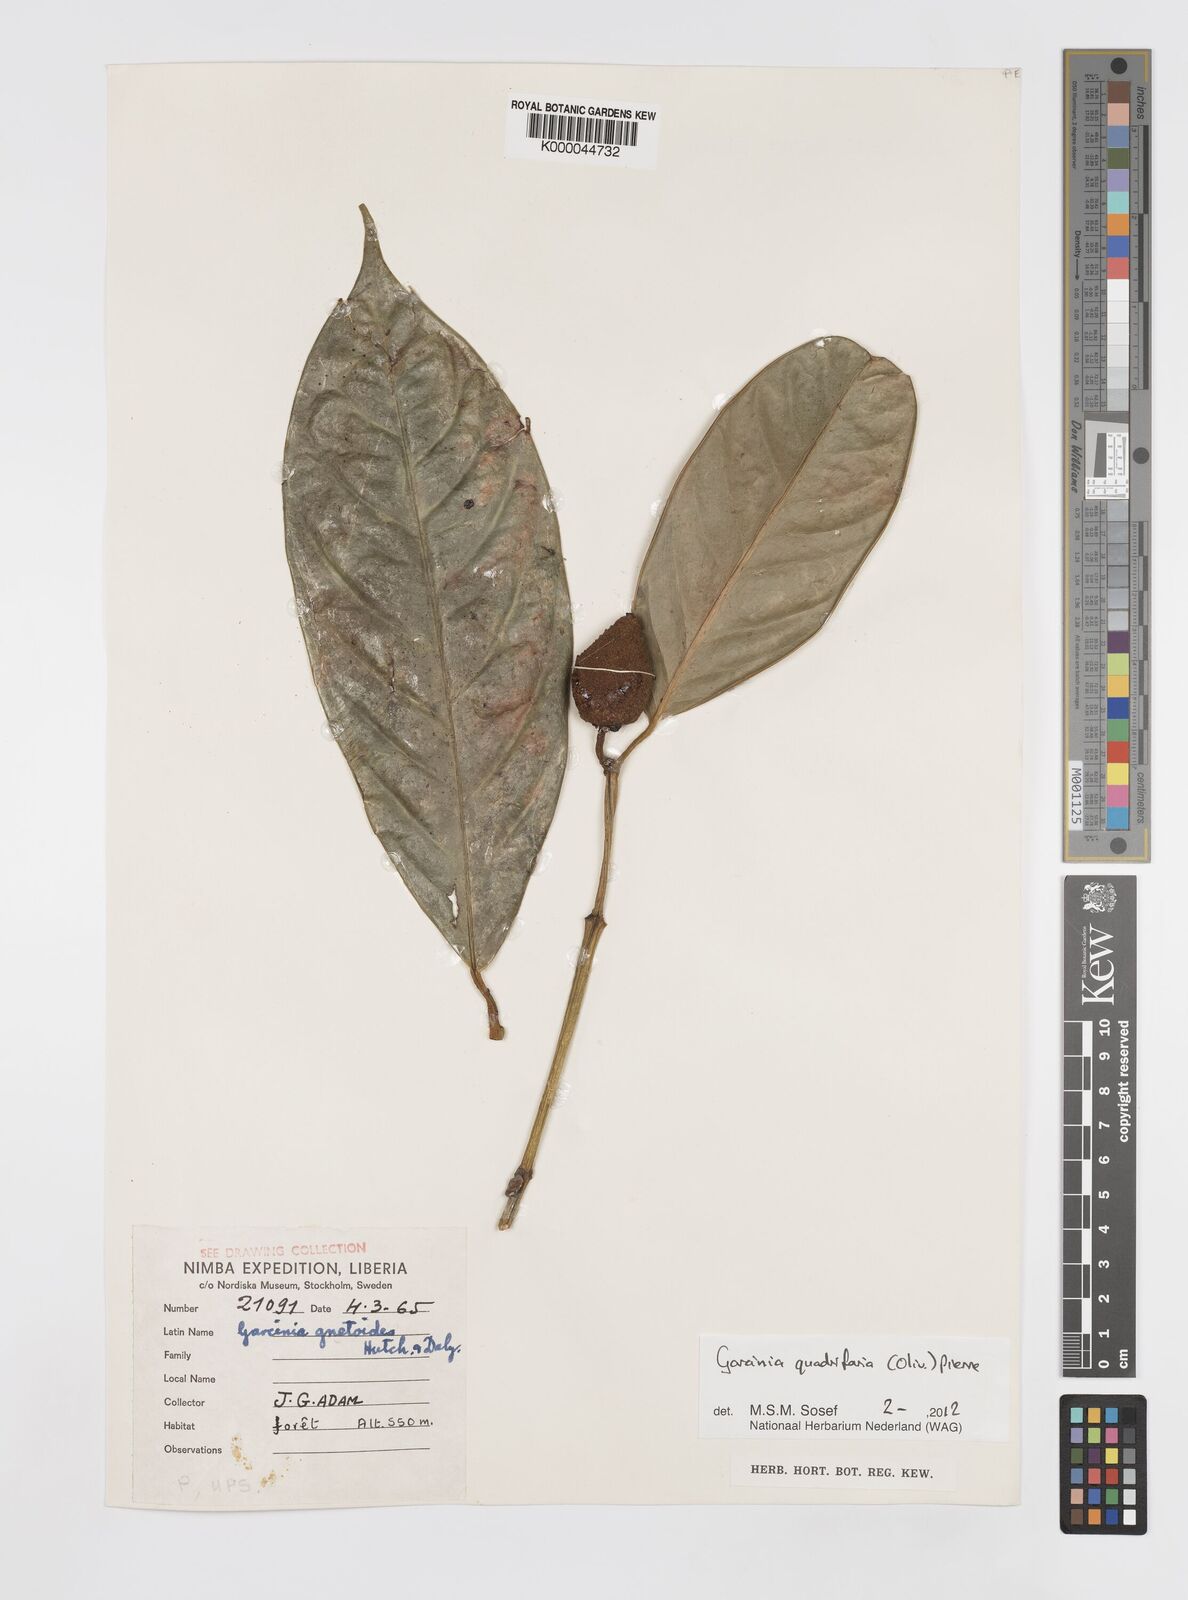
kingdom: Plantae
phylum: Tracheophyta
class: Magnoliopsida
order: Malpighiales
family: Clusiaceae
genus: Garcinia
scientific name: Garcinia gnetoides
